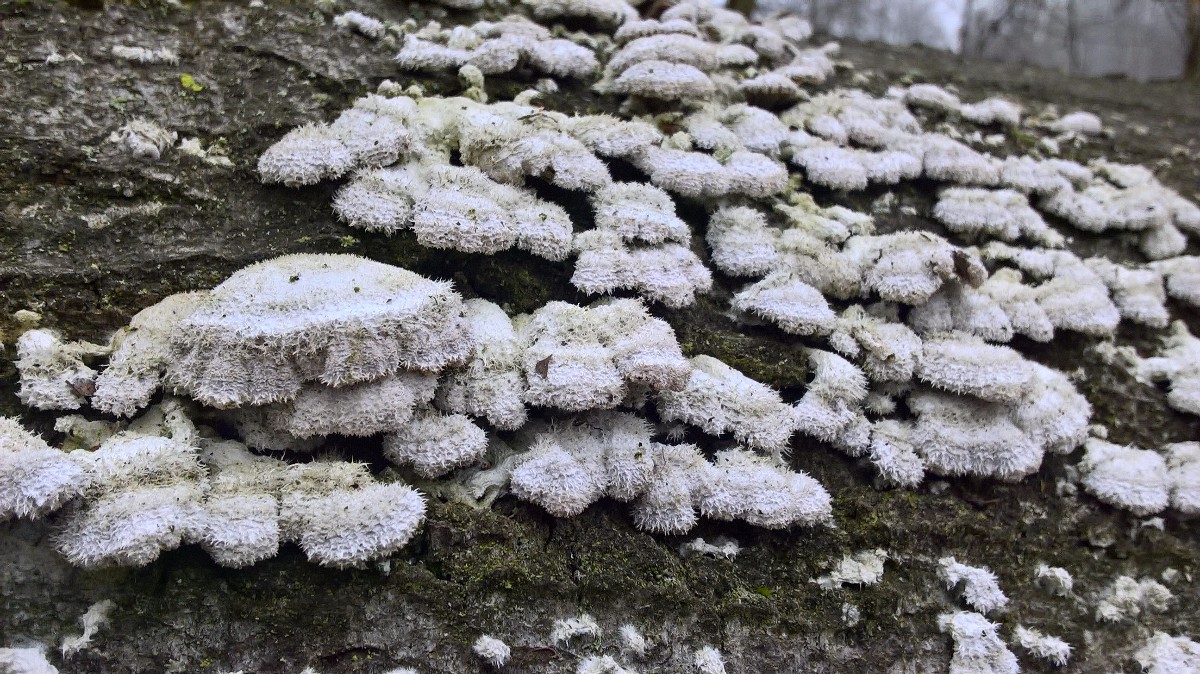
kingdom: Fungi
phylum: Basidiomycota
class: Agaricomycetes
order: Agaricales
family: Schizophyllaceae
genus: Schizophyllum
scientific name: Schizophyllum commune
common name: kløvblad
